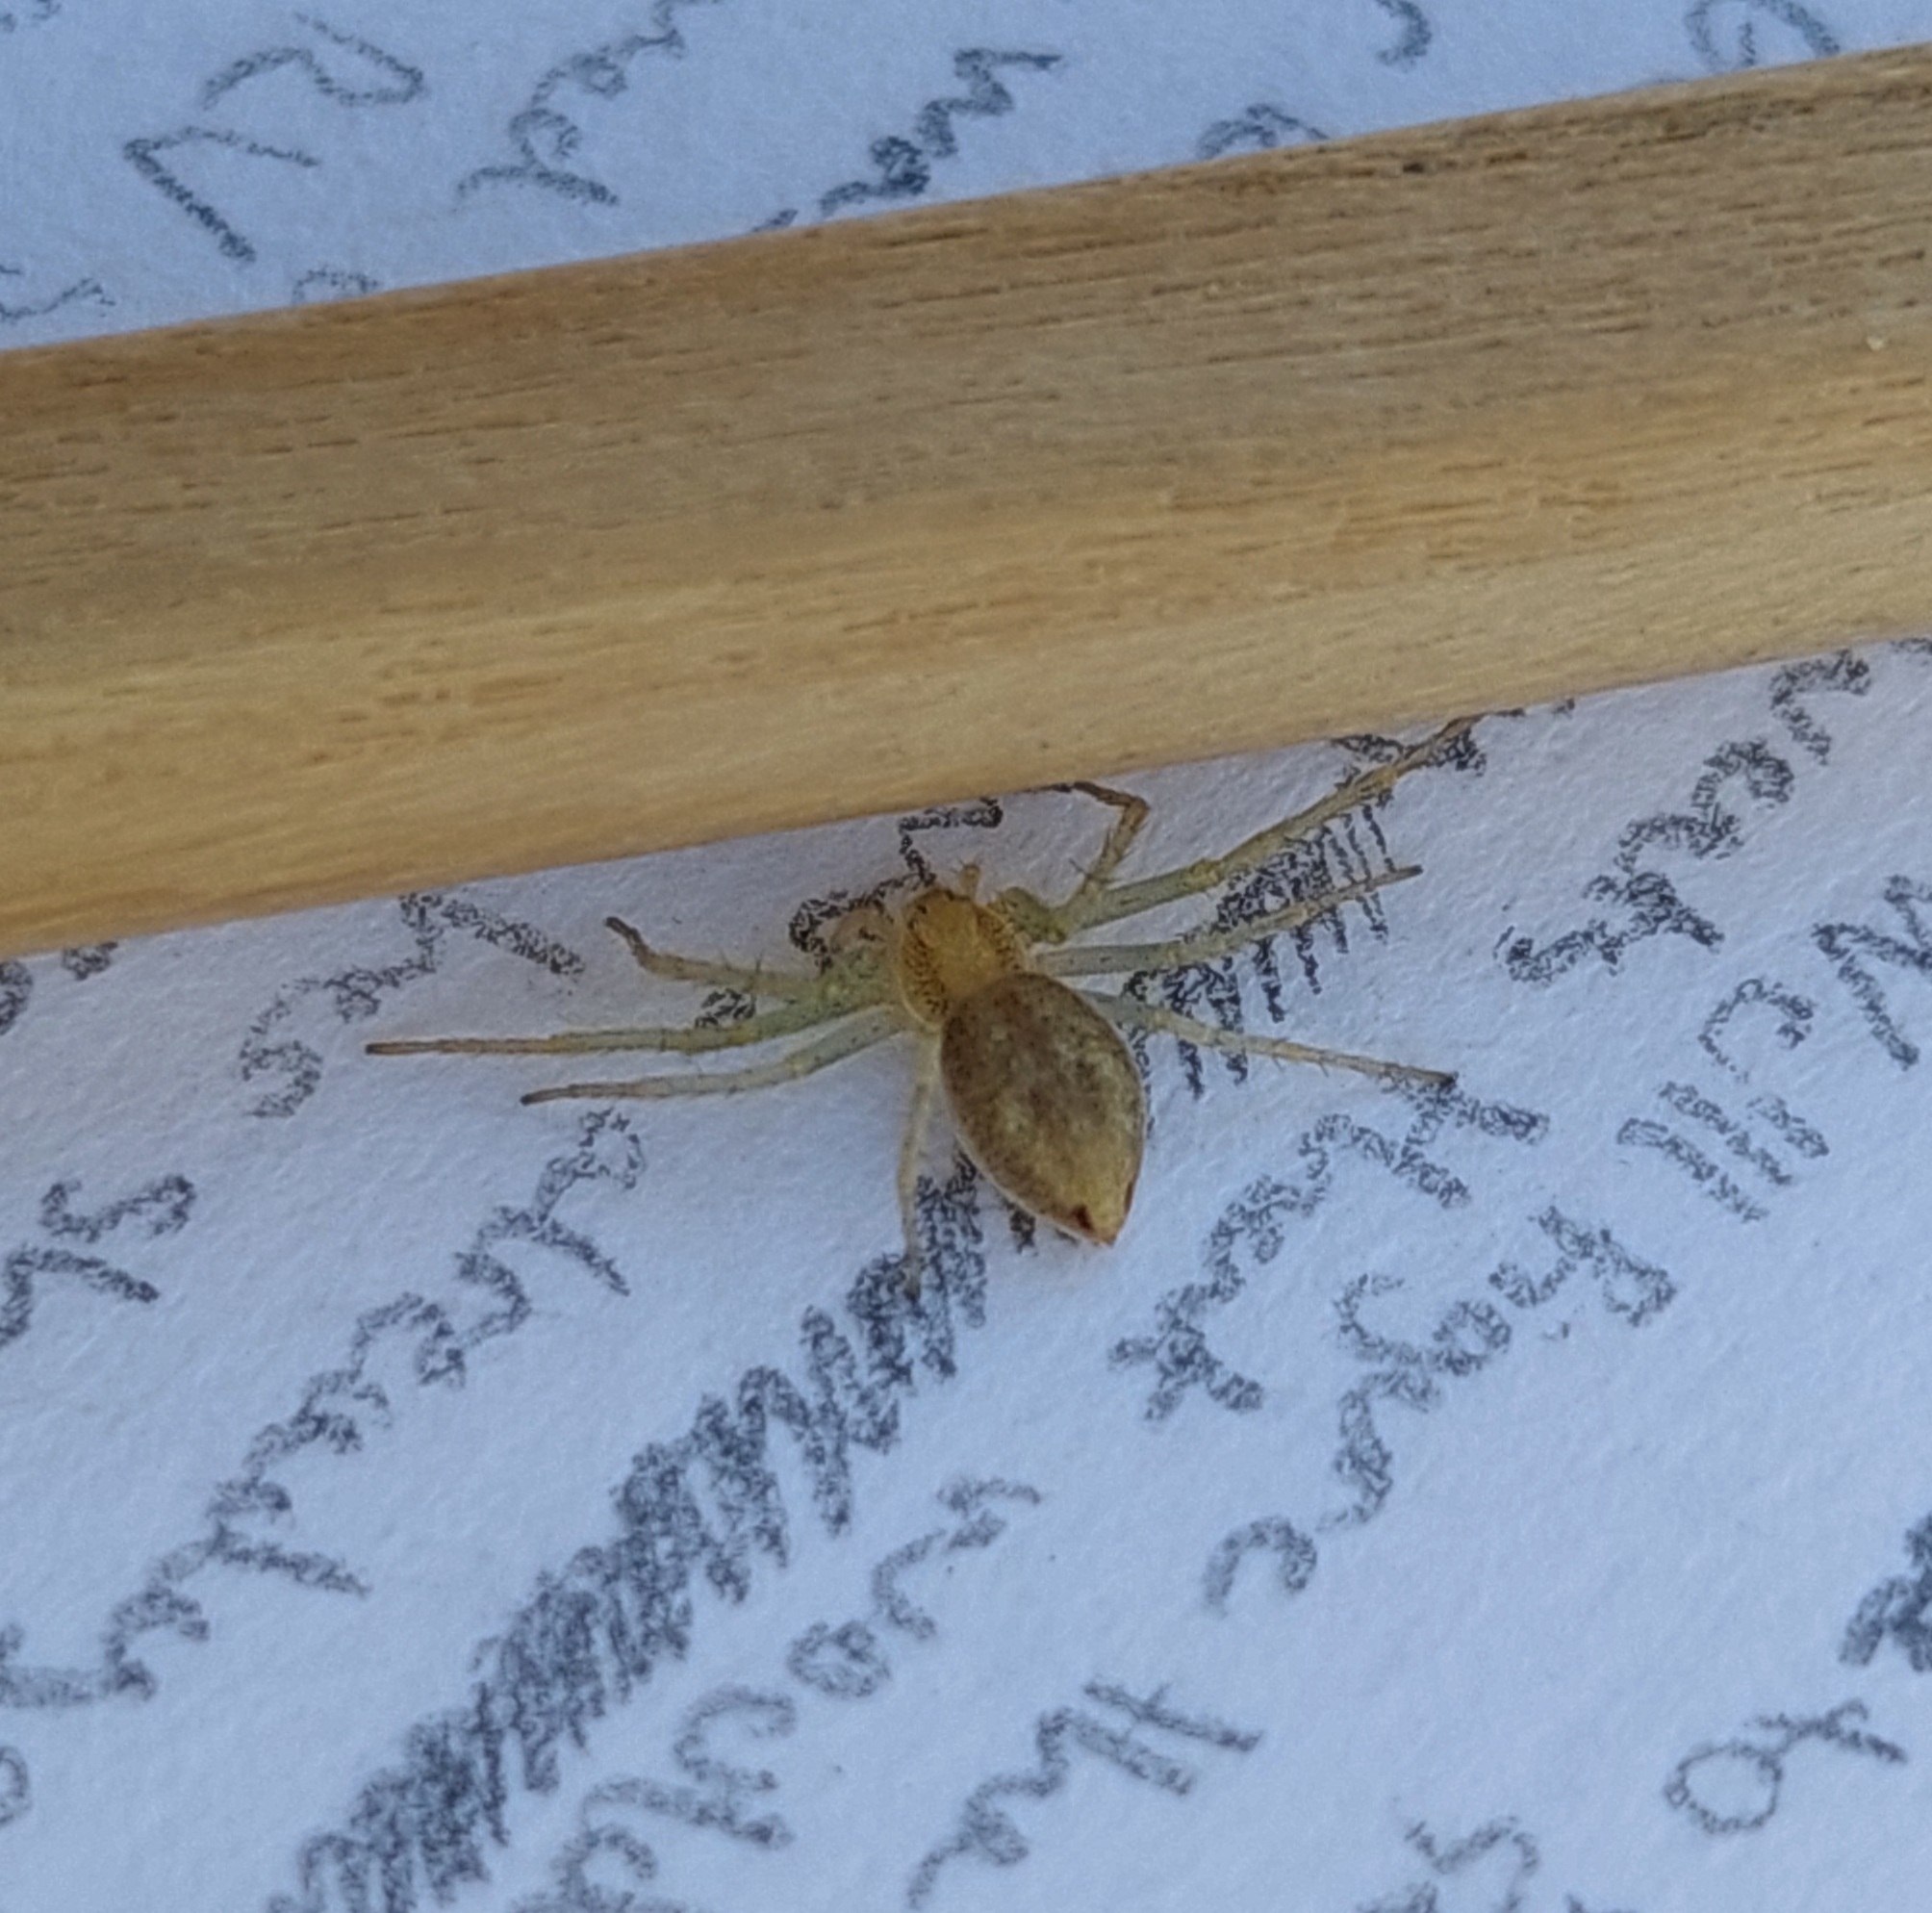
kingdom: Animalia
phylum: Arthropoda
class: Arachnida
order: Araneae
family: Philodromidae
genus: Philodromus
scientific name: Philodromus albidus
